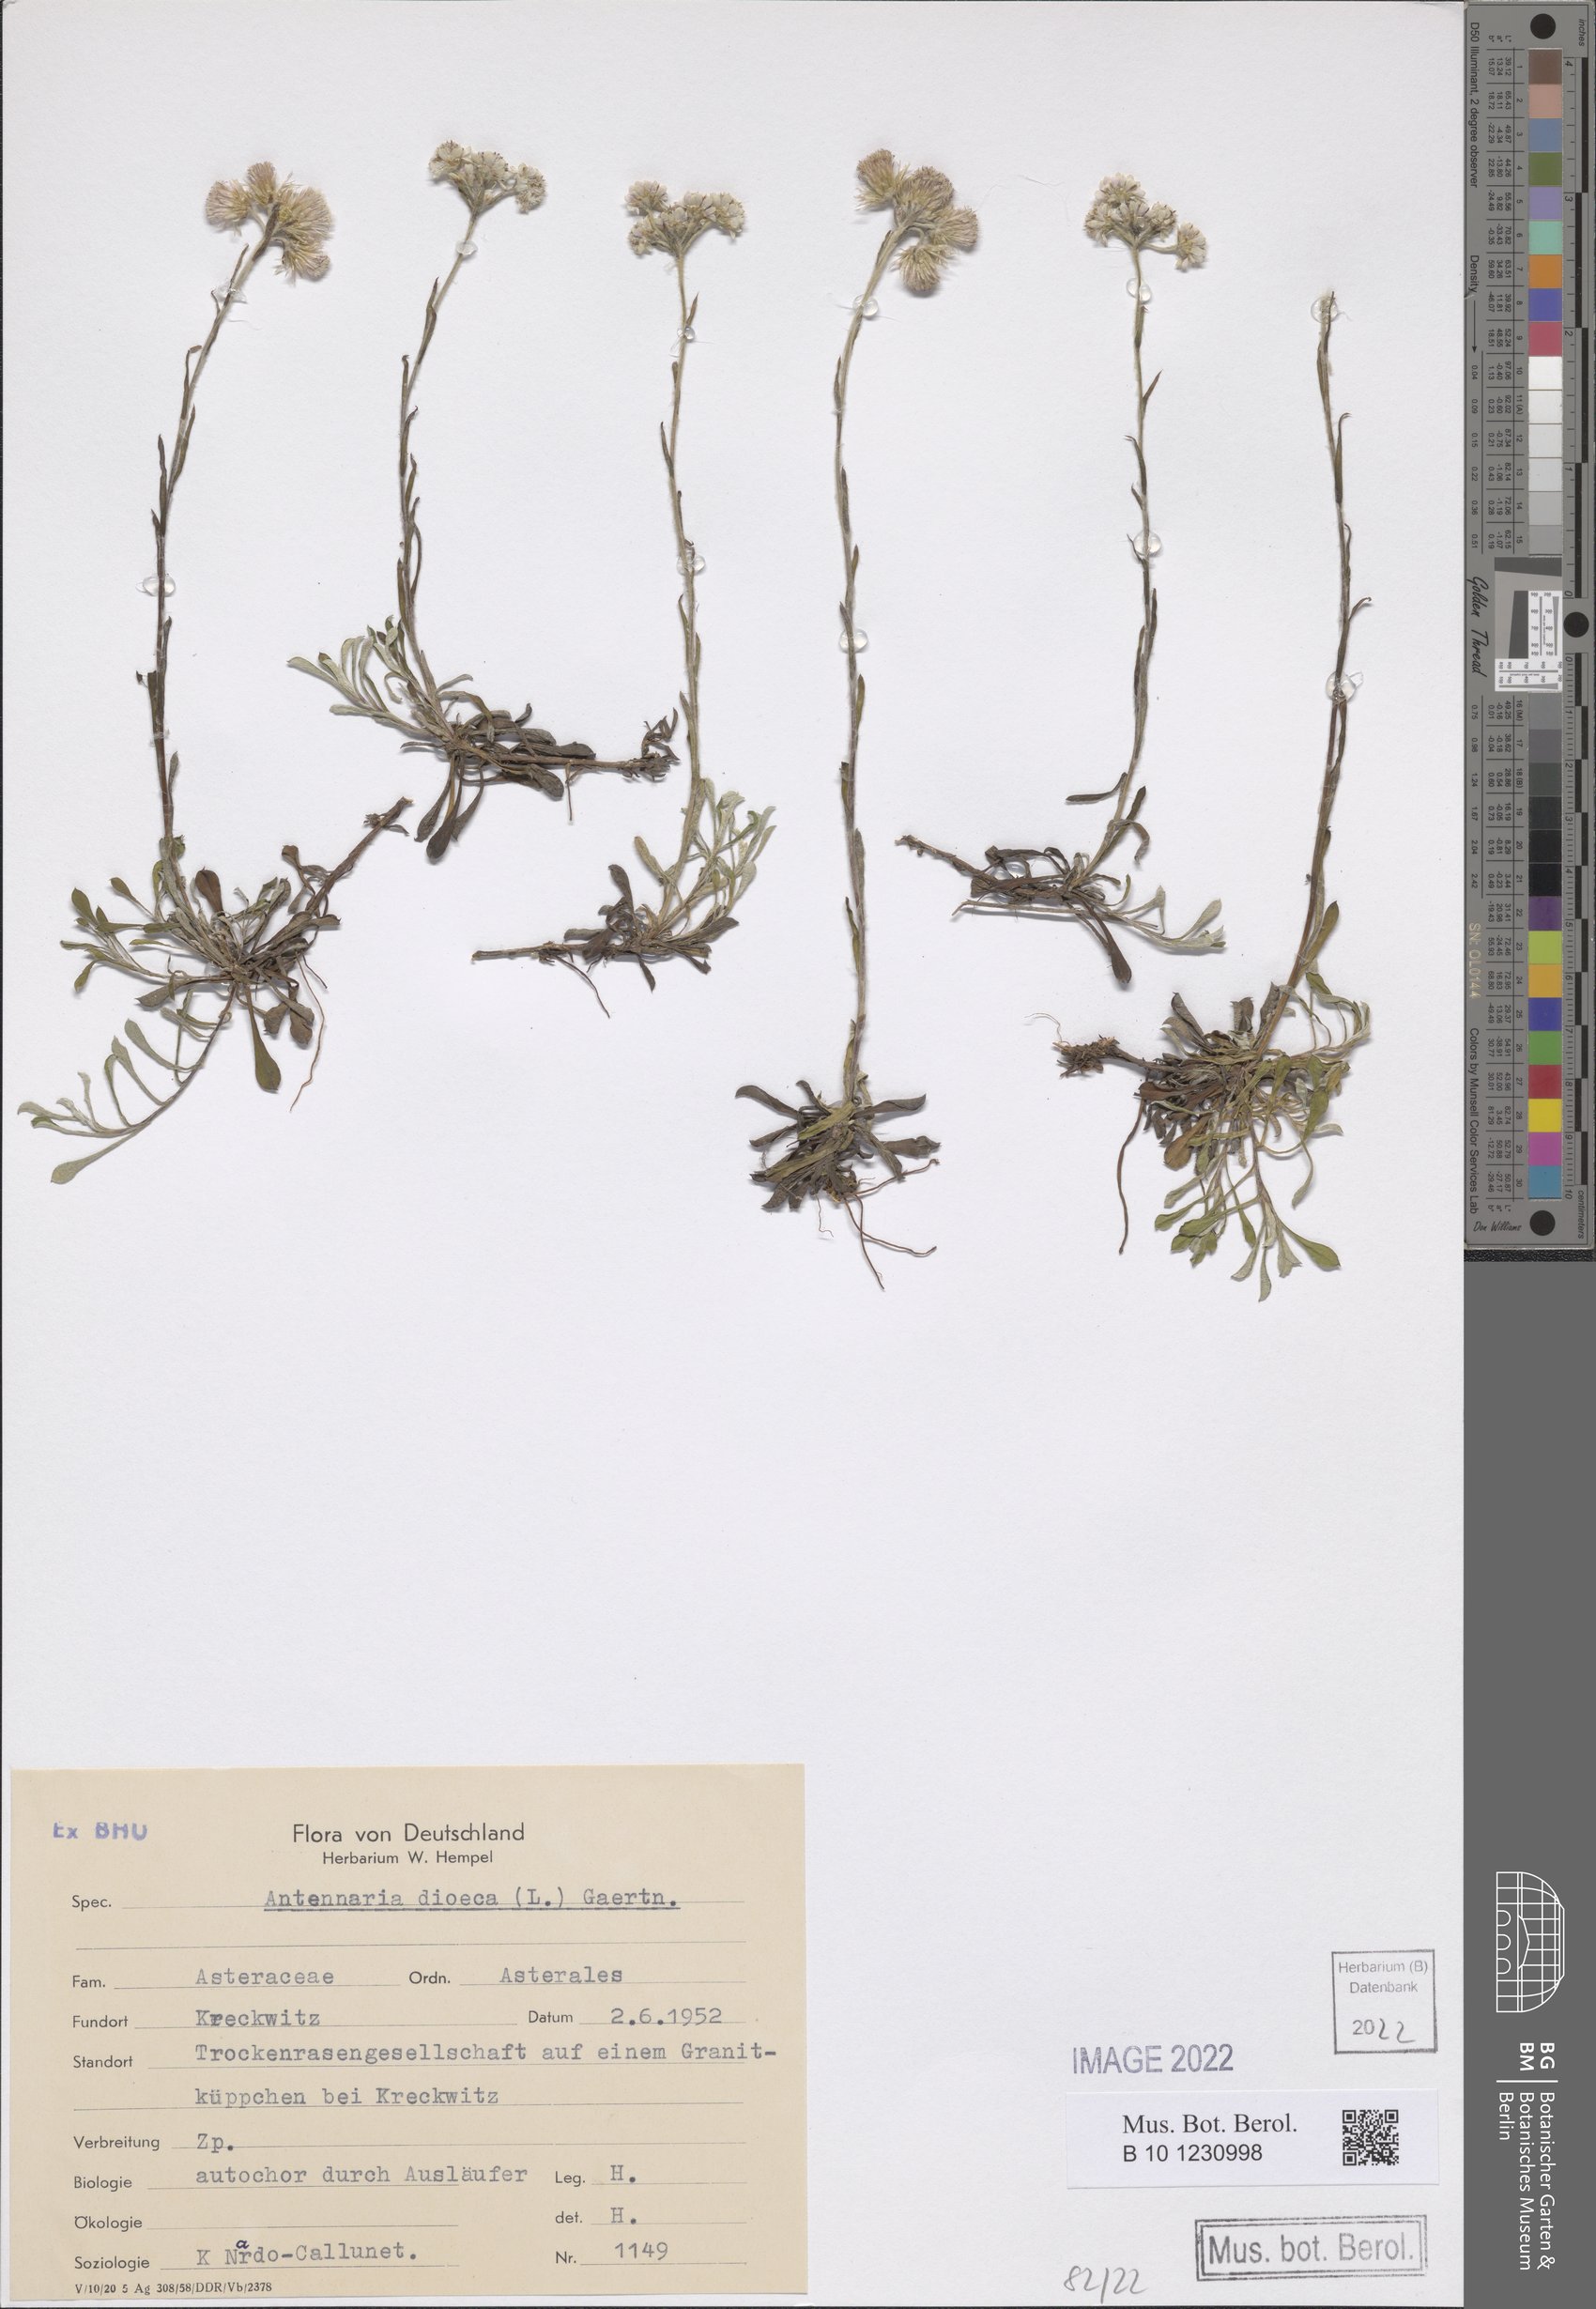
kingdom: Plantae
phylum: Tracheophyta
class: Magnoliopsida
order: Asterales
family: Asteraceae
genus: Antennaria
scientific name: Antennaria dioica
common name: Mountain everlasting
